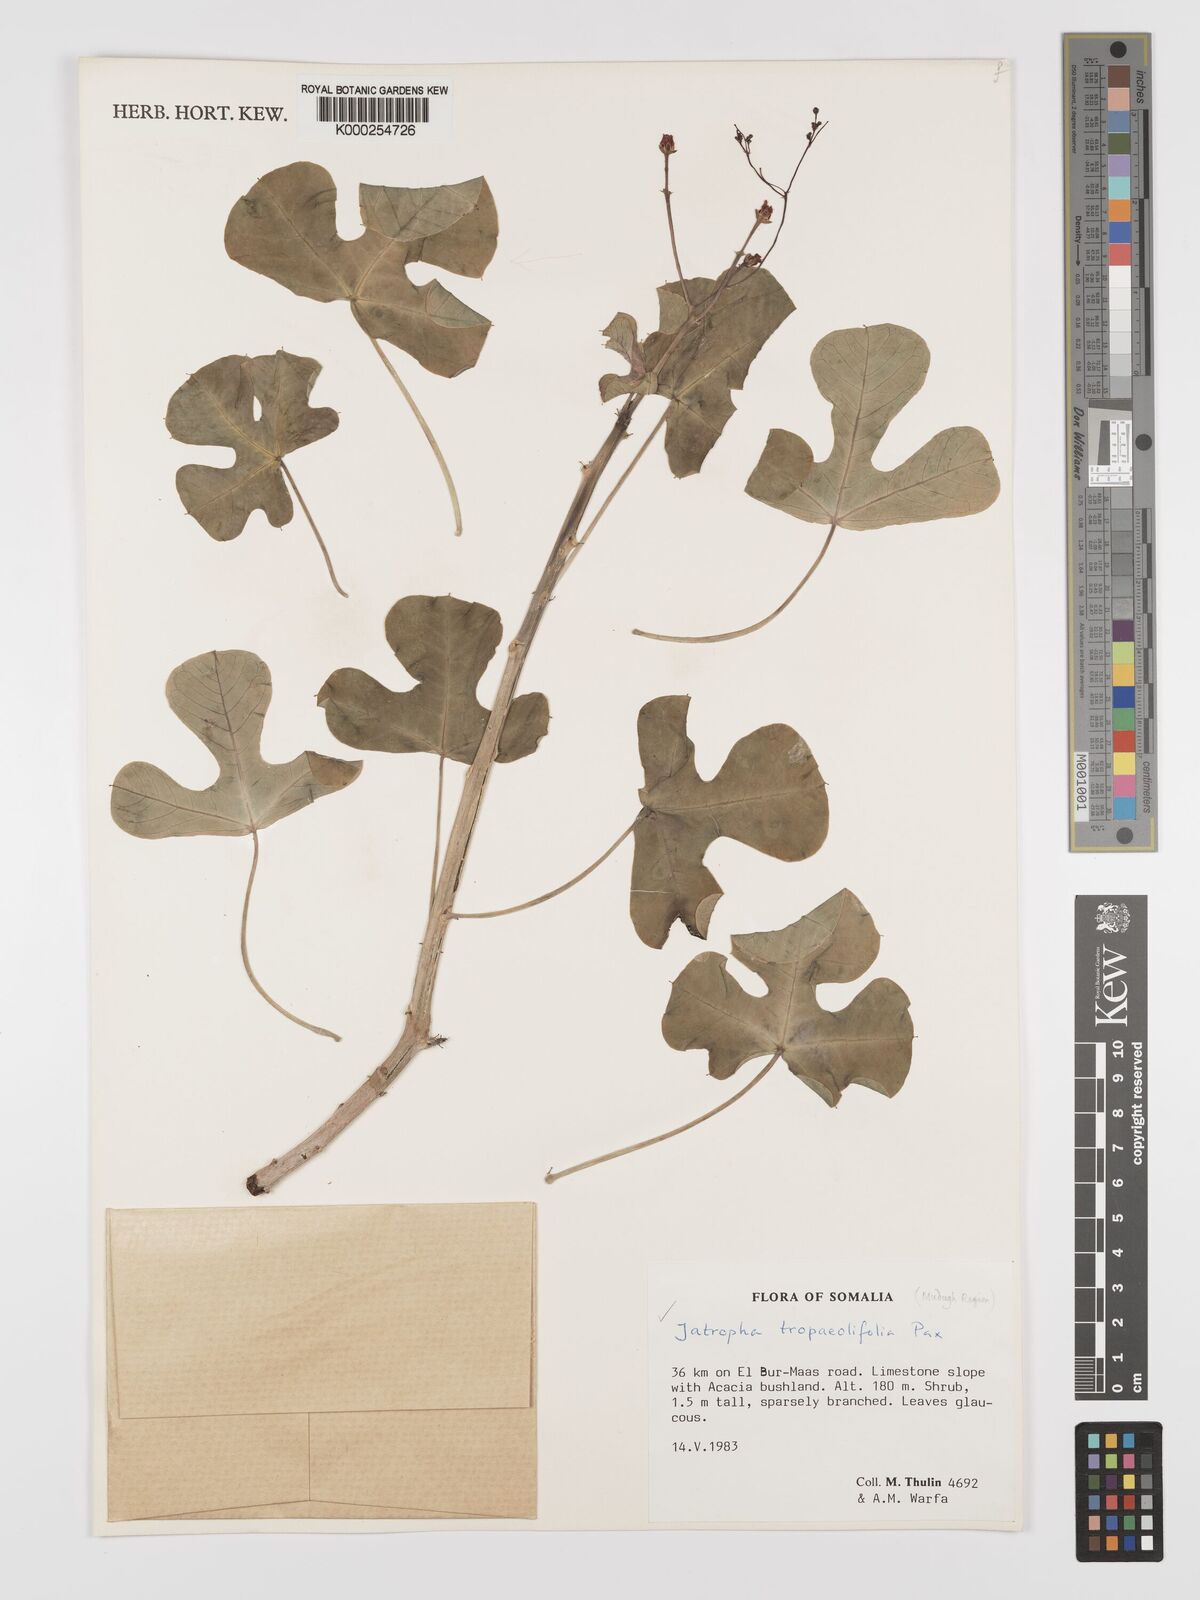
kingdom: Plantae
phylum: Tracheophyta
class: Magnoliopsida
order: Malpighiales
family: Euphorbiaceae
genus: Jatropha
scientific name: Jatropha tropaeolifolia
